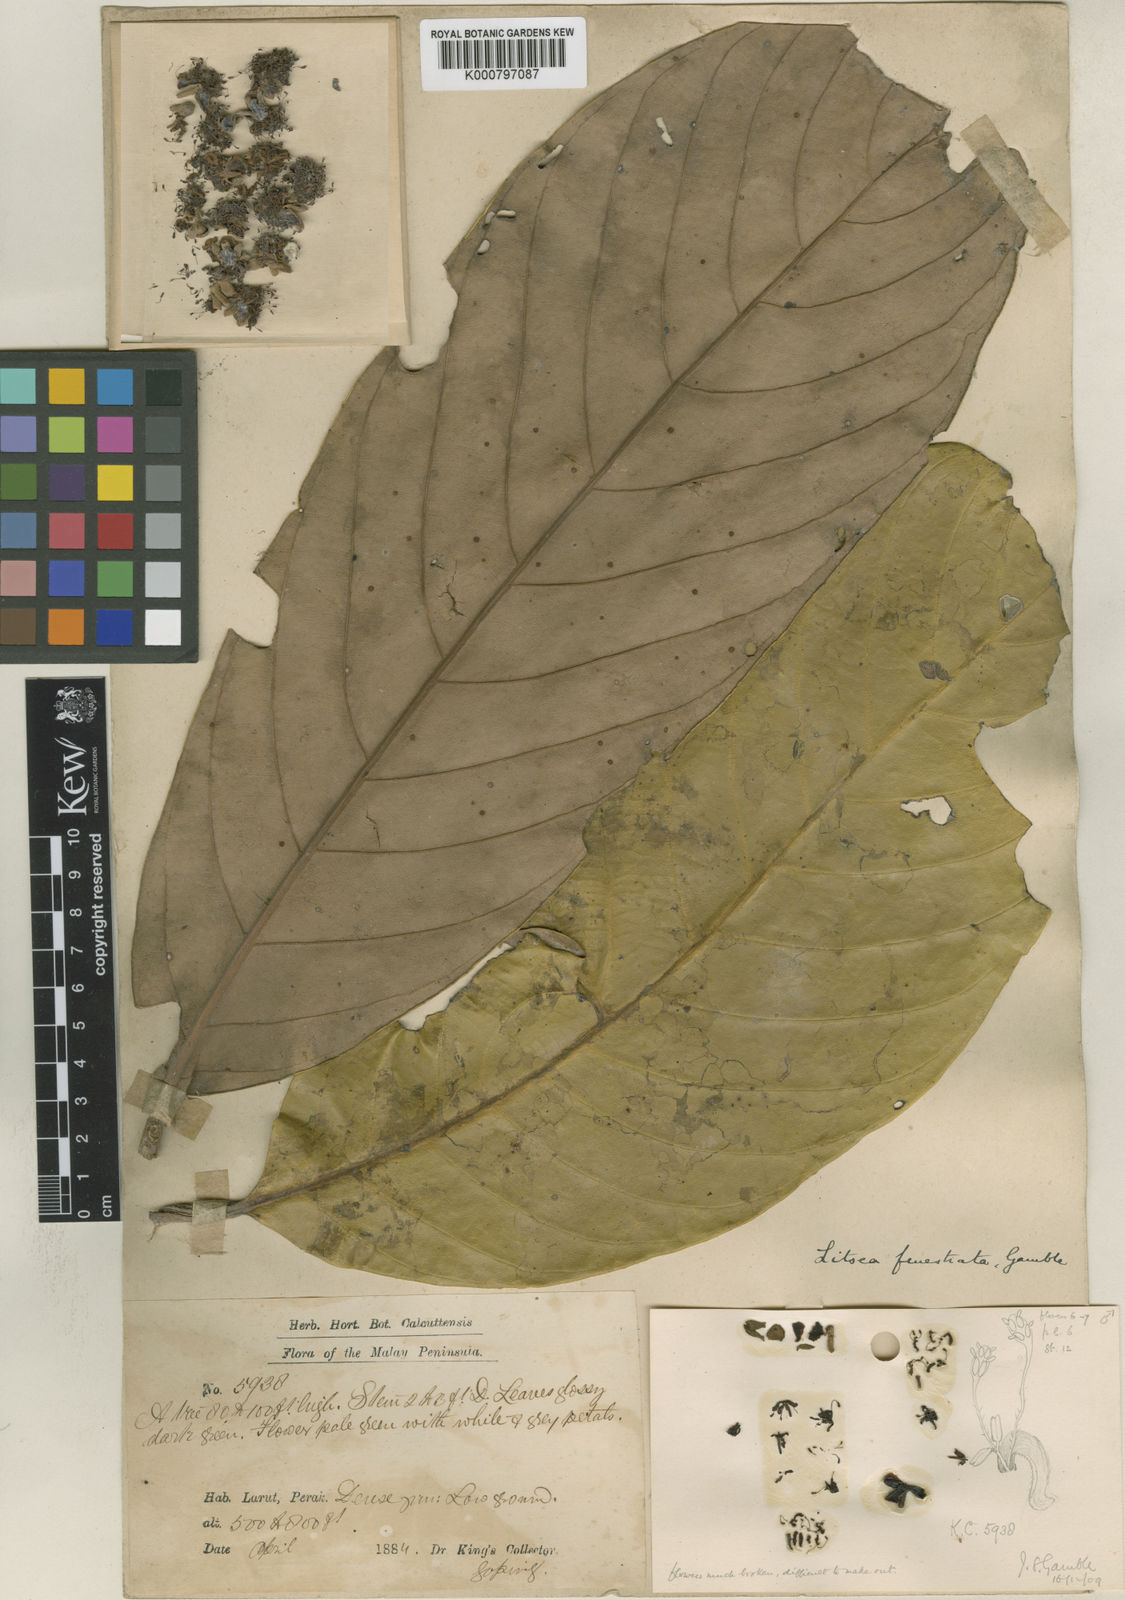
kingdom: Plantae
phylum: Tracheophyta
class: Magnoliopsida
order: Laurales
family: Lauraceae
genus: Litsea
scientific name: Litsea fenestrata
